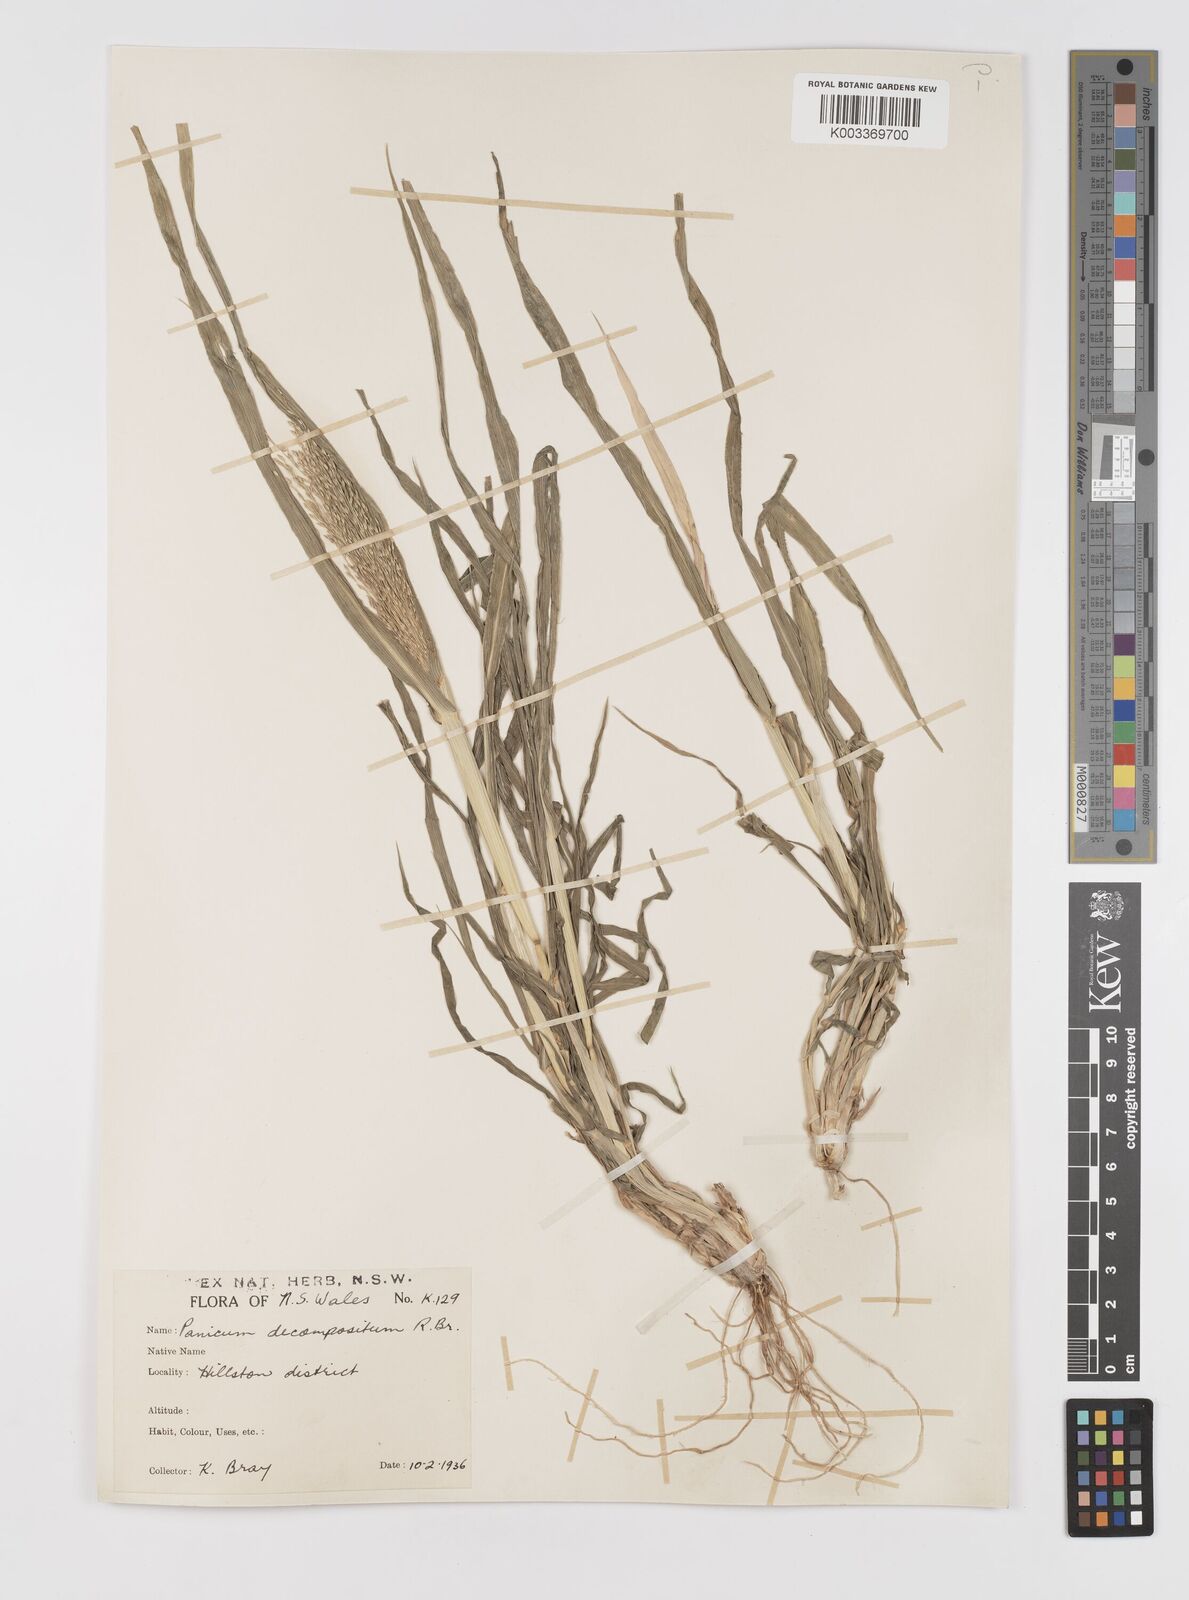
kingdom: Plantae
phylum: Tracheophyta
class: Liliopsida
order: Poales
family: Poaceae
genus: Panicum
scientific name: Panicum decompositum
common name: Australian millet
